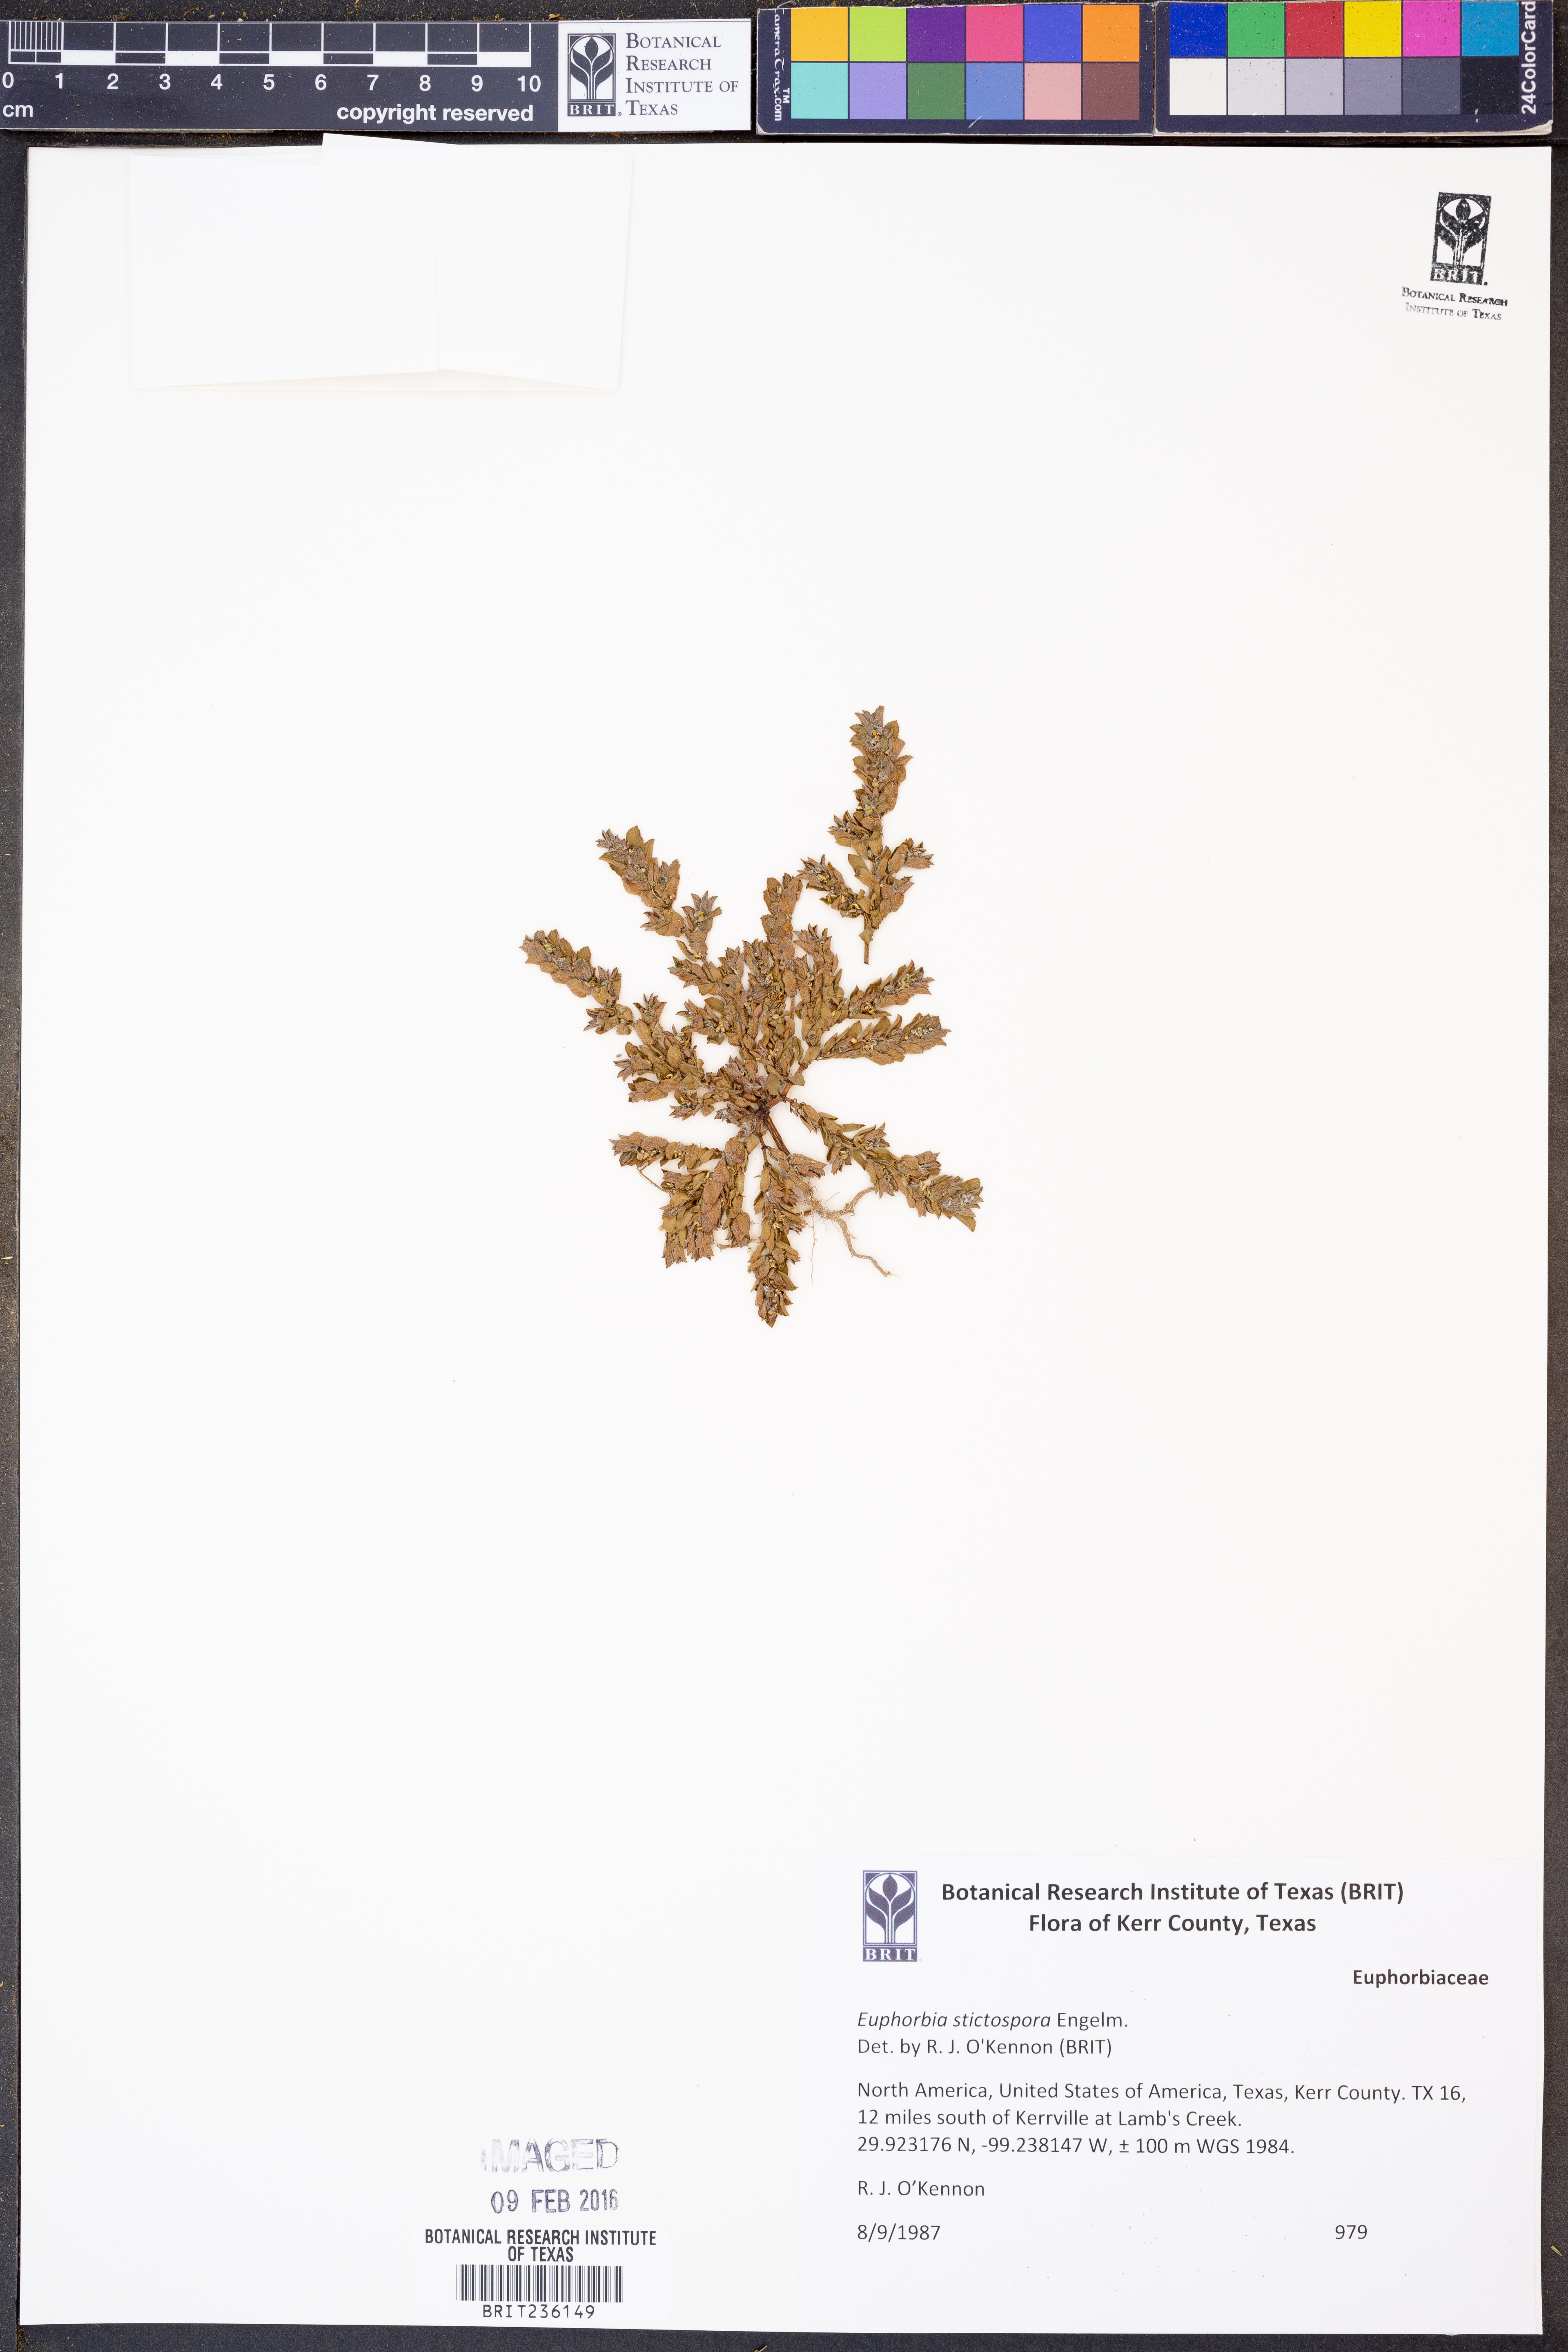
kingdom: Plantae
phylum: Tracheophyta
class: Magnoliopsida
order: Malpighiales
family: Euphorbiaceae
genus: Euphorbia
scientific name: Euphorbia stictospora
